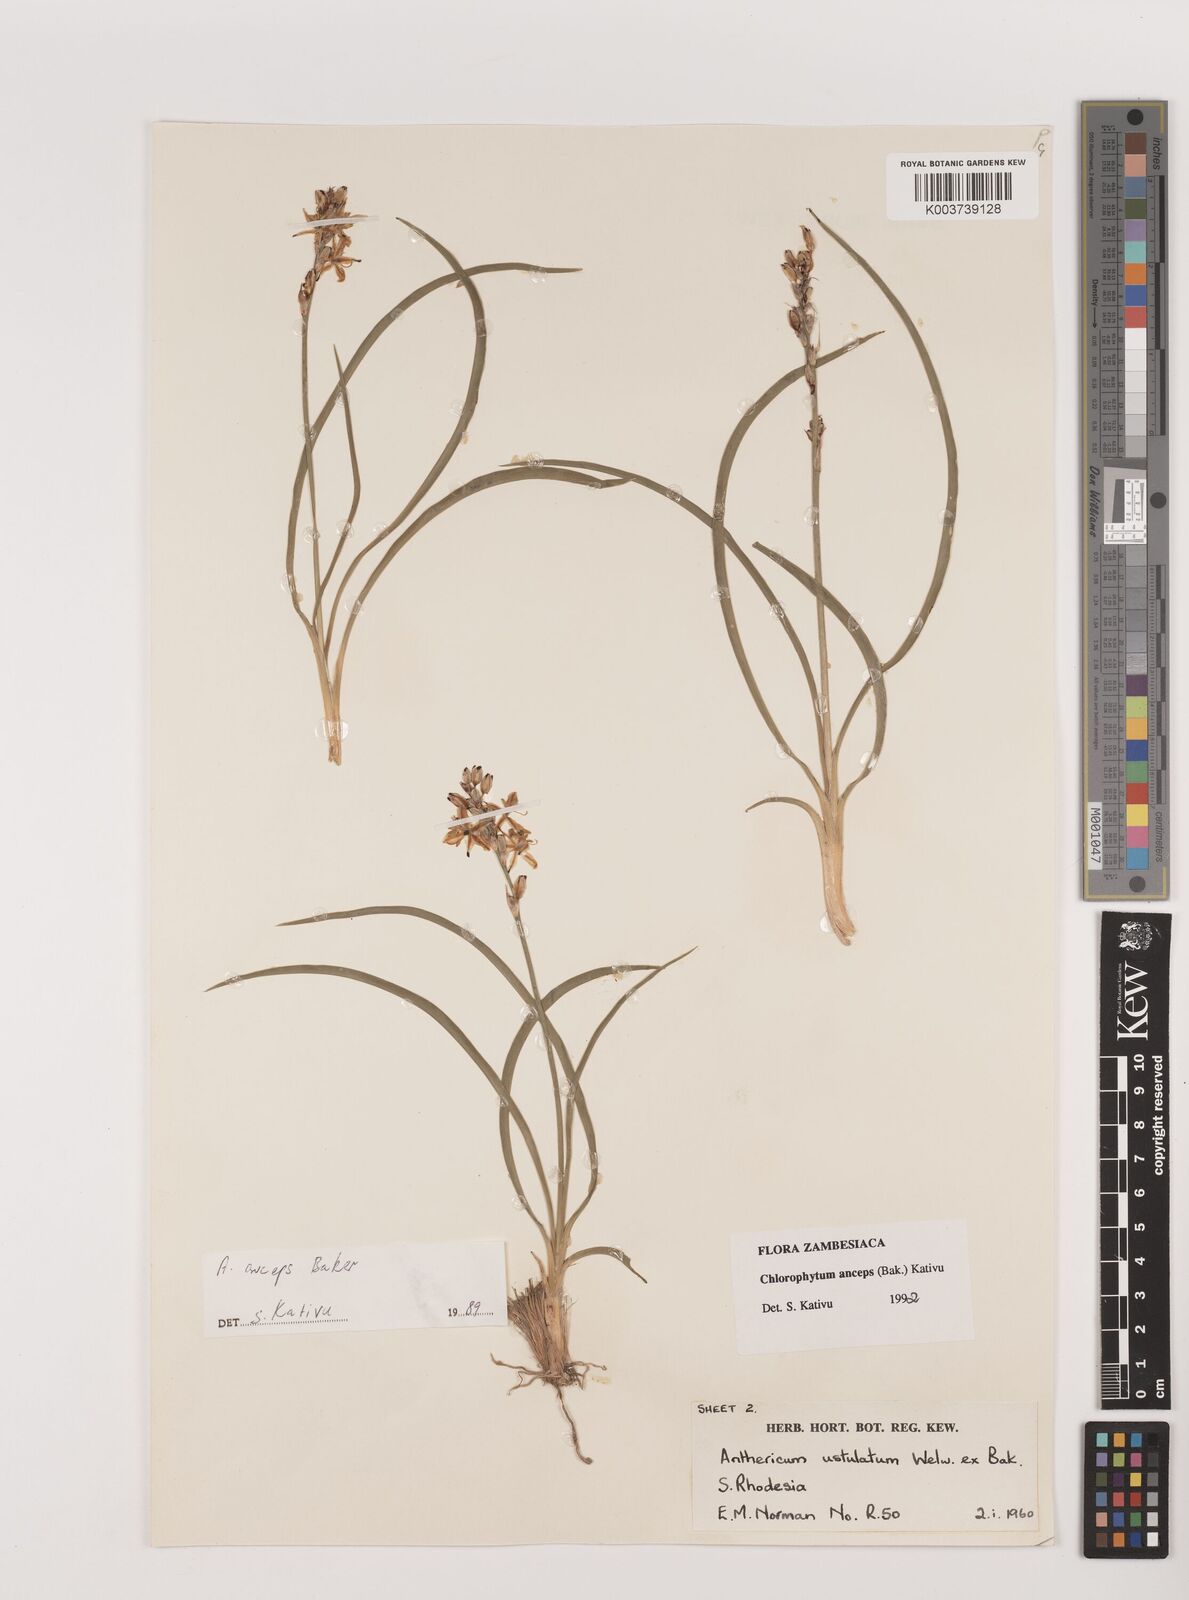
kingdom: Plantae
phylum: Tracheophyta
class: Liliopsida
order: Asparagales
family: Asparagaceae
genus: Chlorophytum
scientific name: Chlorophytum anceps
